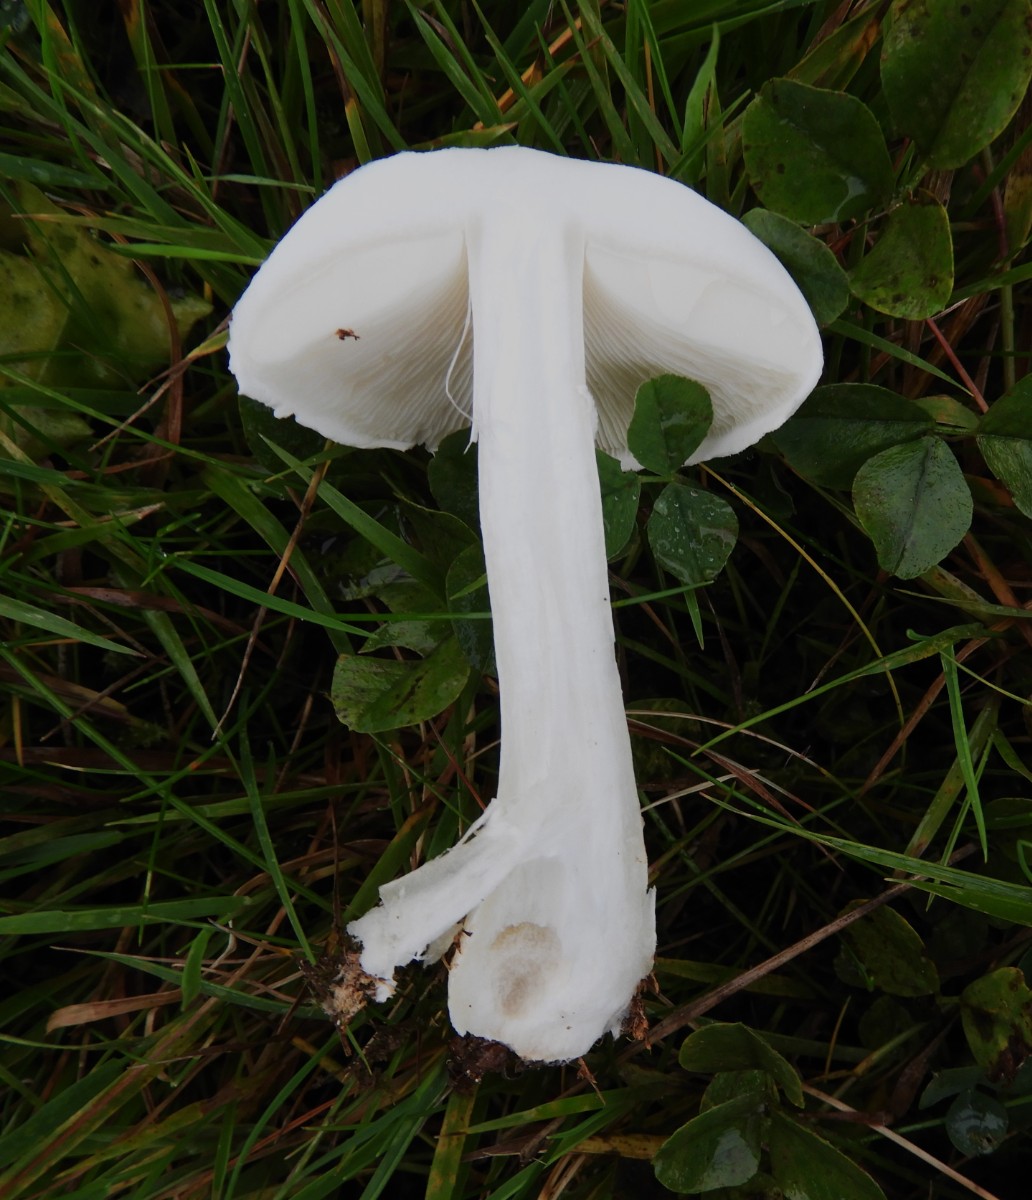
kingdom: Fungi
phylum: Basidiomycota
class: Agaricomycetes
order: Agaricales
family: Agaricaceae
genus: Leucoagaricus
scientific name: Leucoagaricus leucothites
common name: rosabladet silkehat
